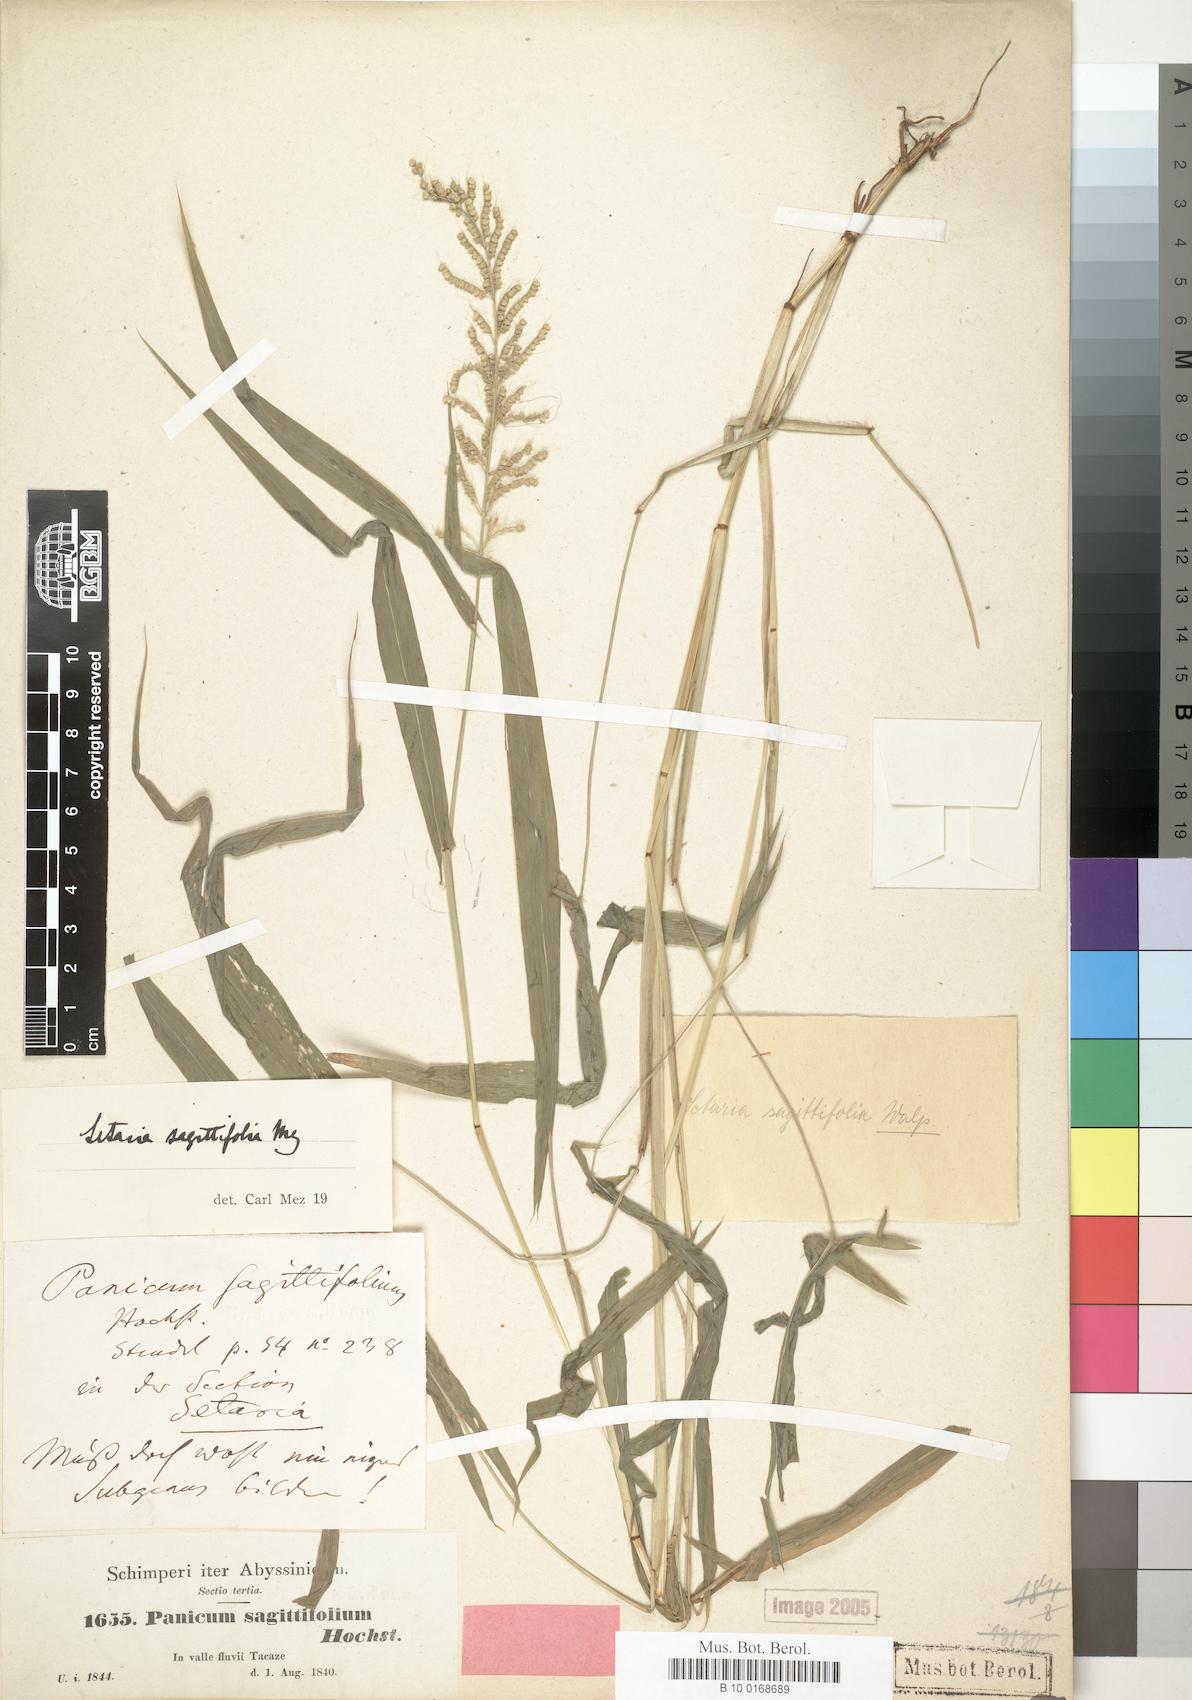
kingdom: Plantae
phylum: Tracheophyta
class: Liliopsida
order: Poales
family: Poaceae
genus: Setaria
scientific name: Setaria sagittifolia
